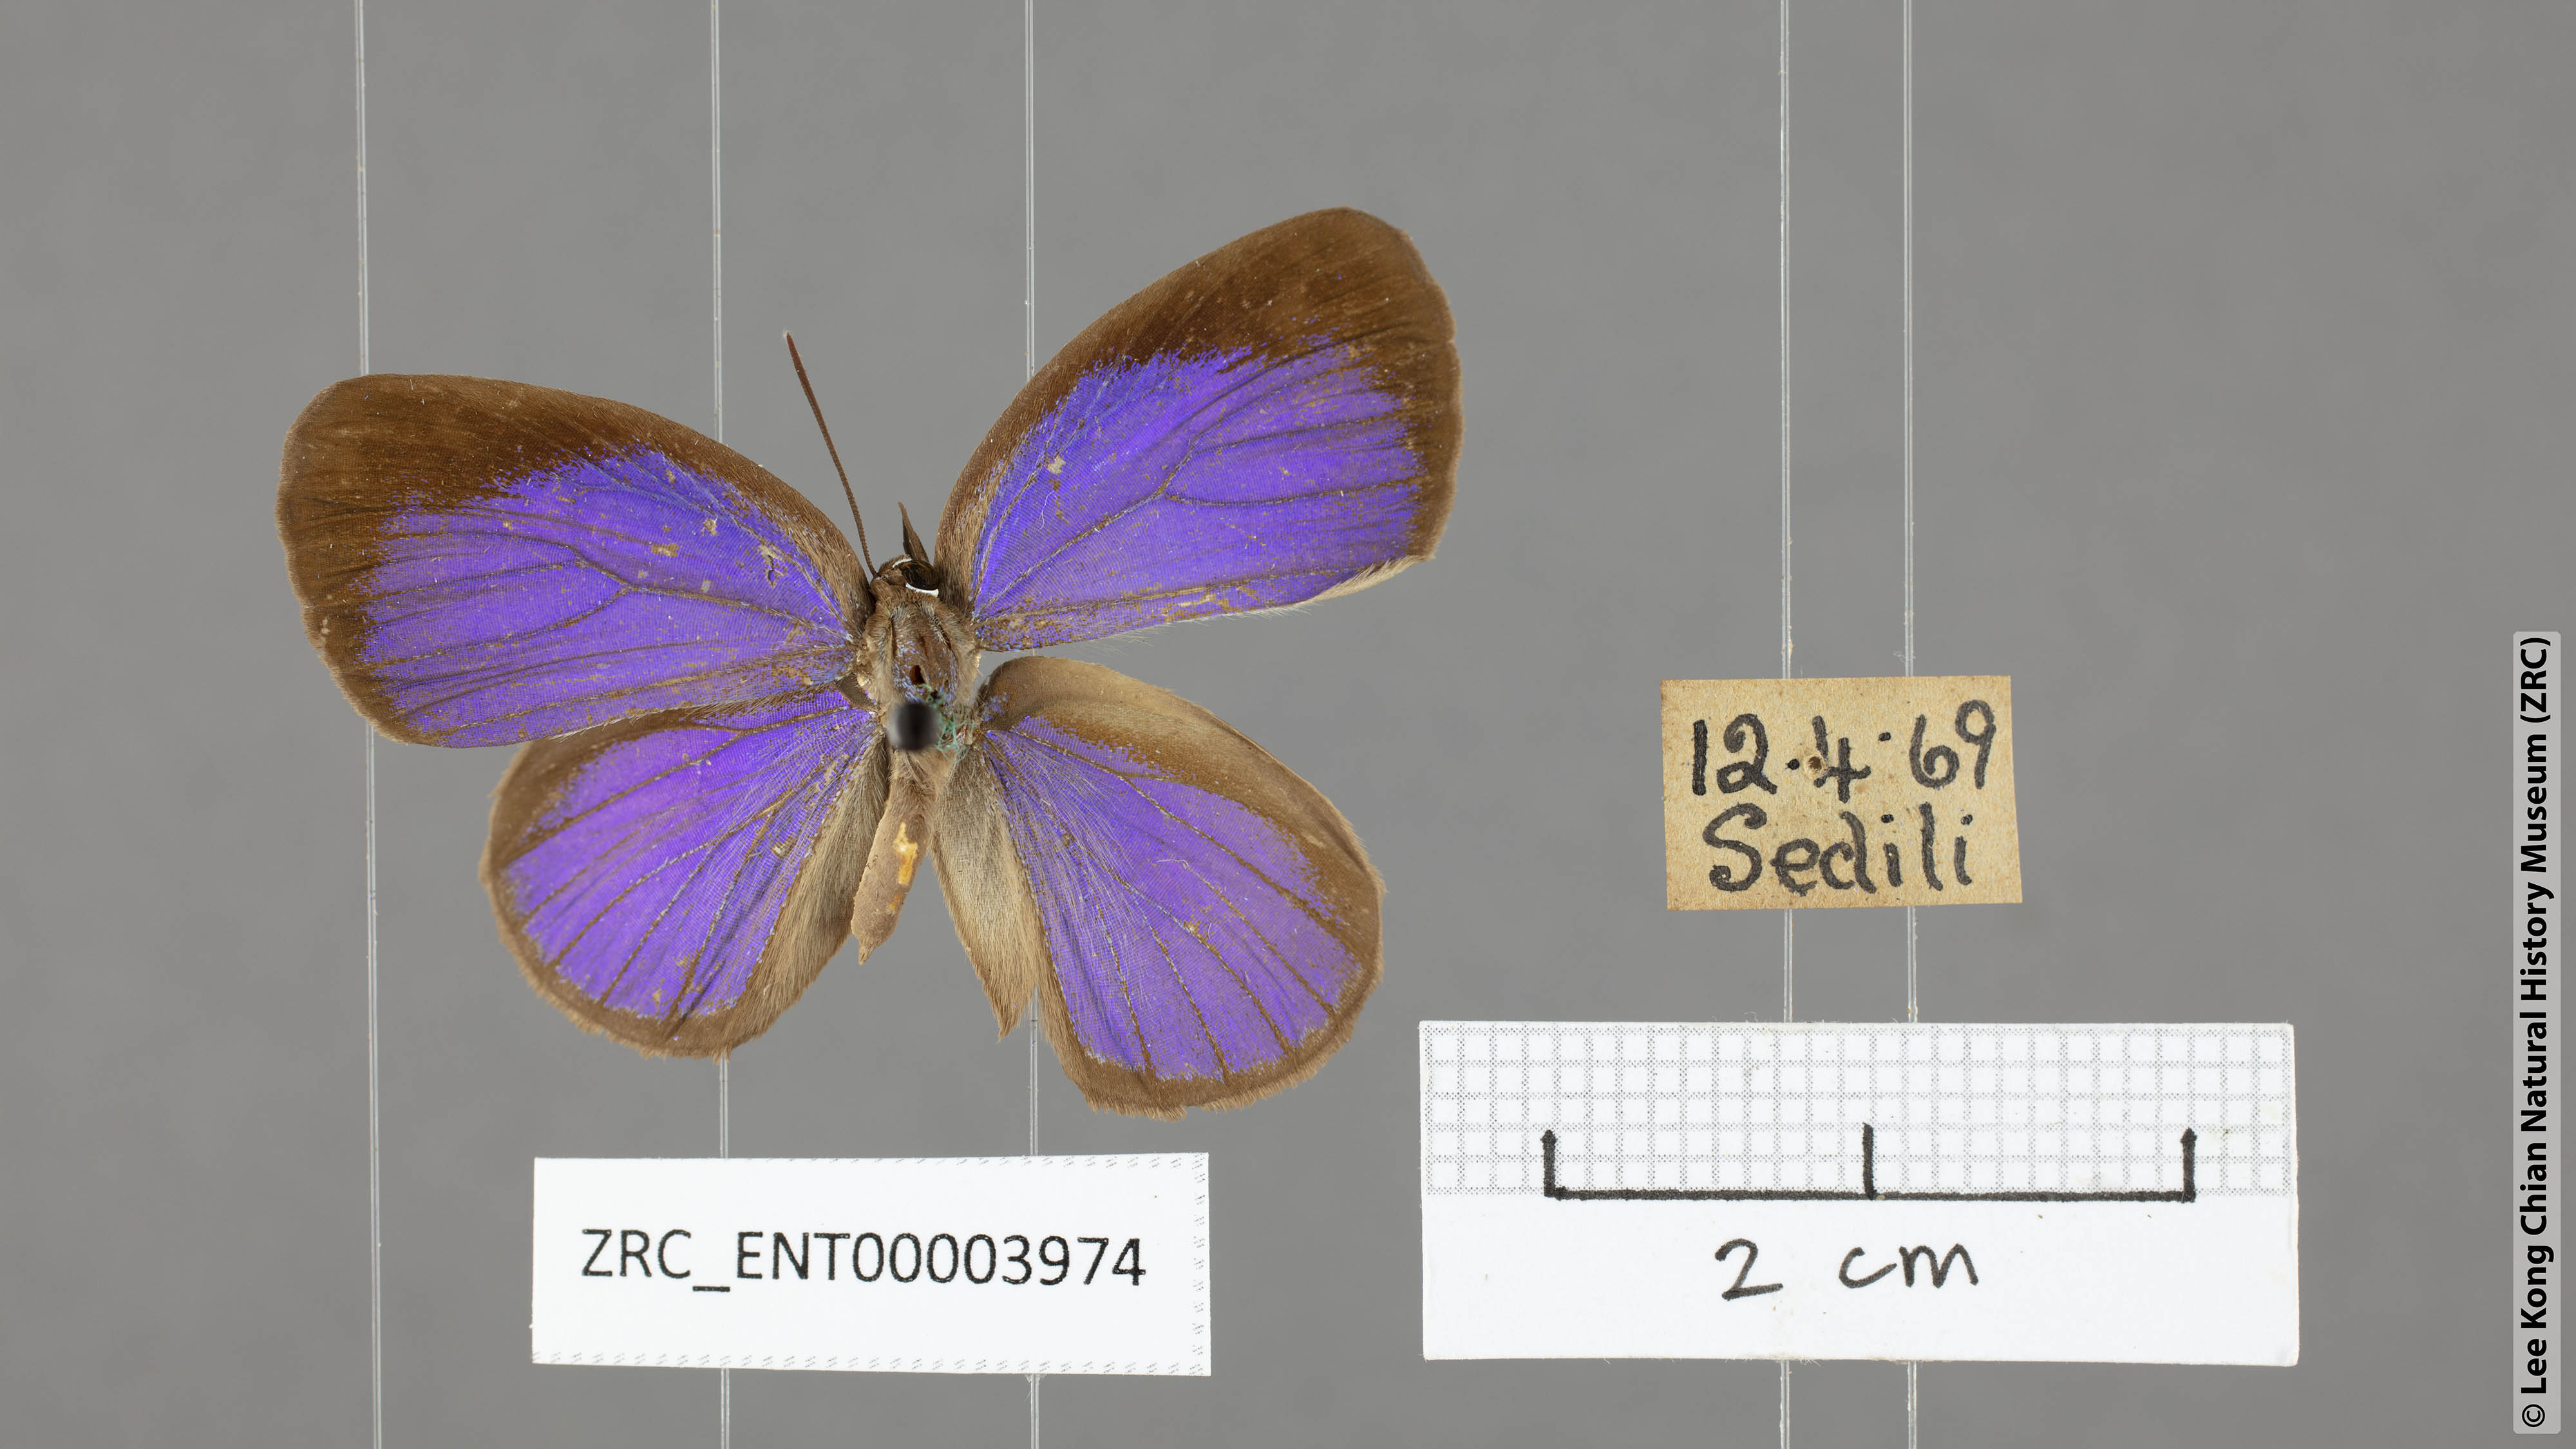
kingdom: Animalia
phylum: Arthropoda
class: Insecta
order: Lepidoptera
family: Lycaenidae
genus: Arhopala
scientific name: Arhopala inornata
